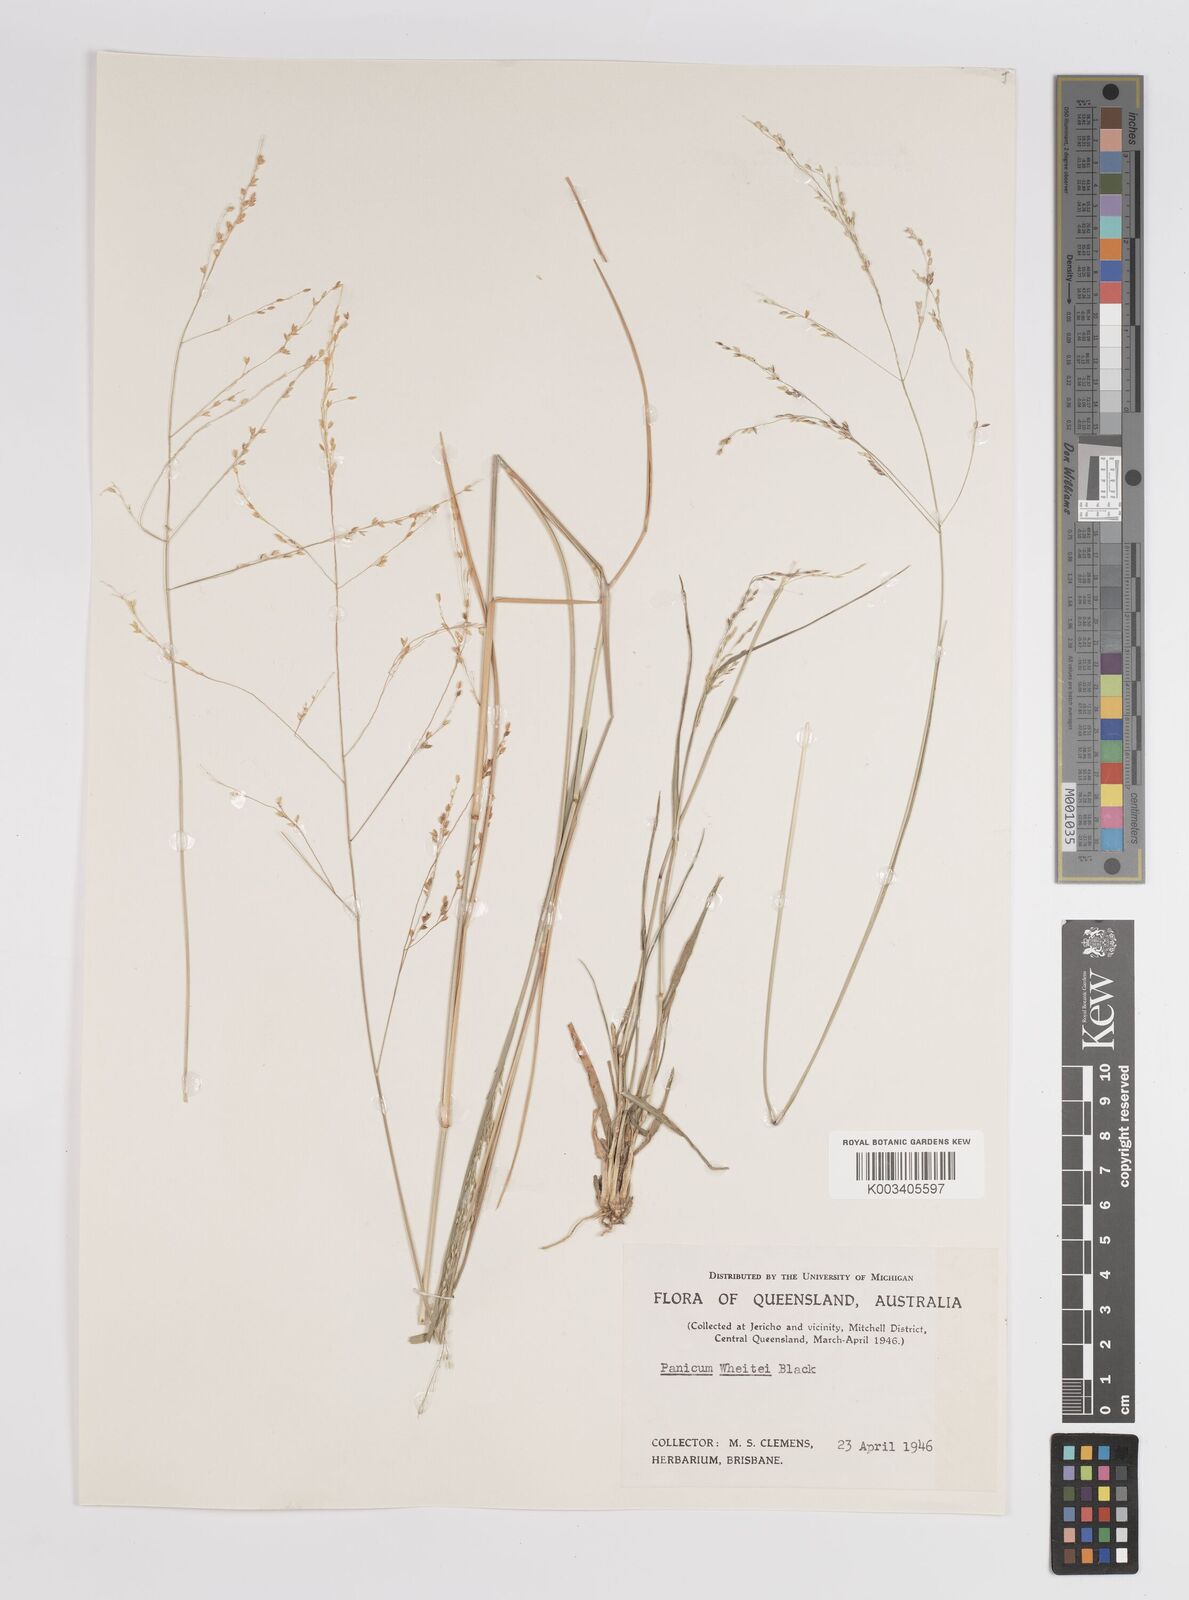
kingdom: Plantae
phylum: Tracheophyta
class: Liliopsida
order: Poales
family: Poaceae
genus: Panicum
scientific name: Panicum
